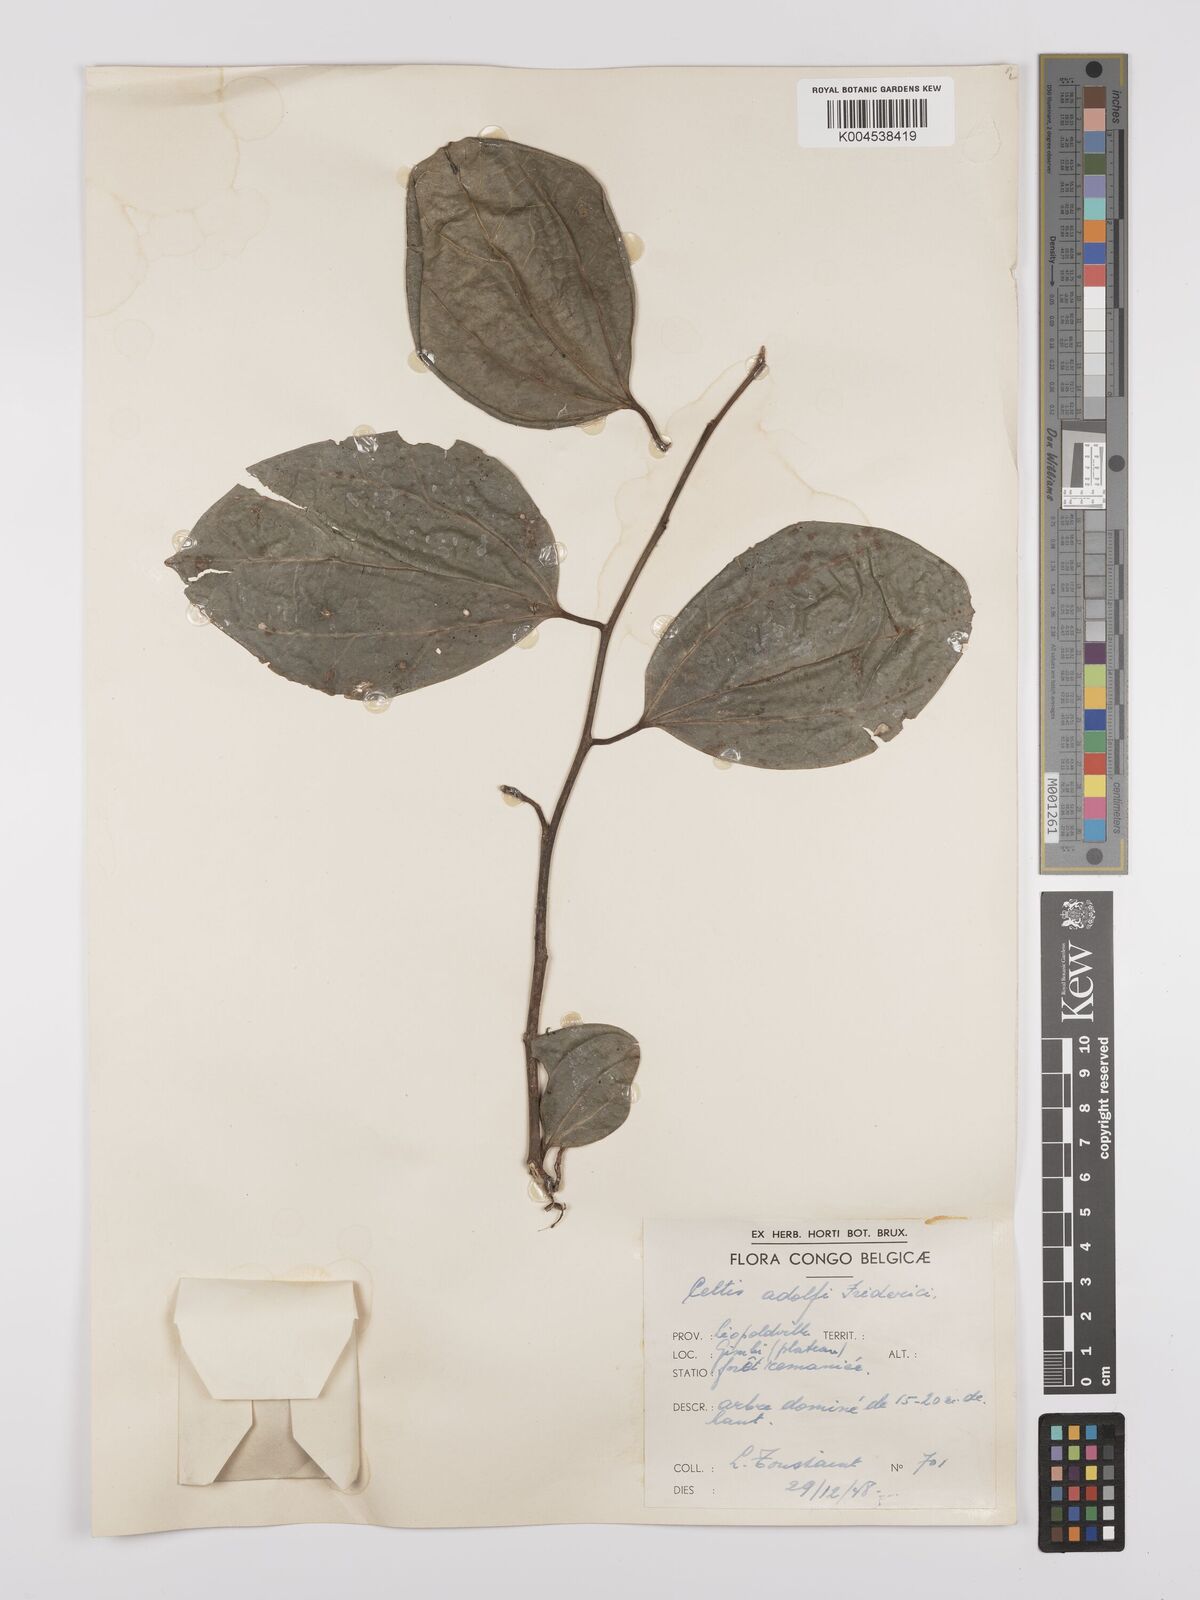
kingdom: Plantae
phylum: Tracheophyta
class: Magnoliopsida
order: Rosales
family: Cannabaceae
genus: Celtis
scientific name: Celtis adolfi-friderici
